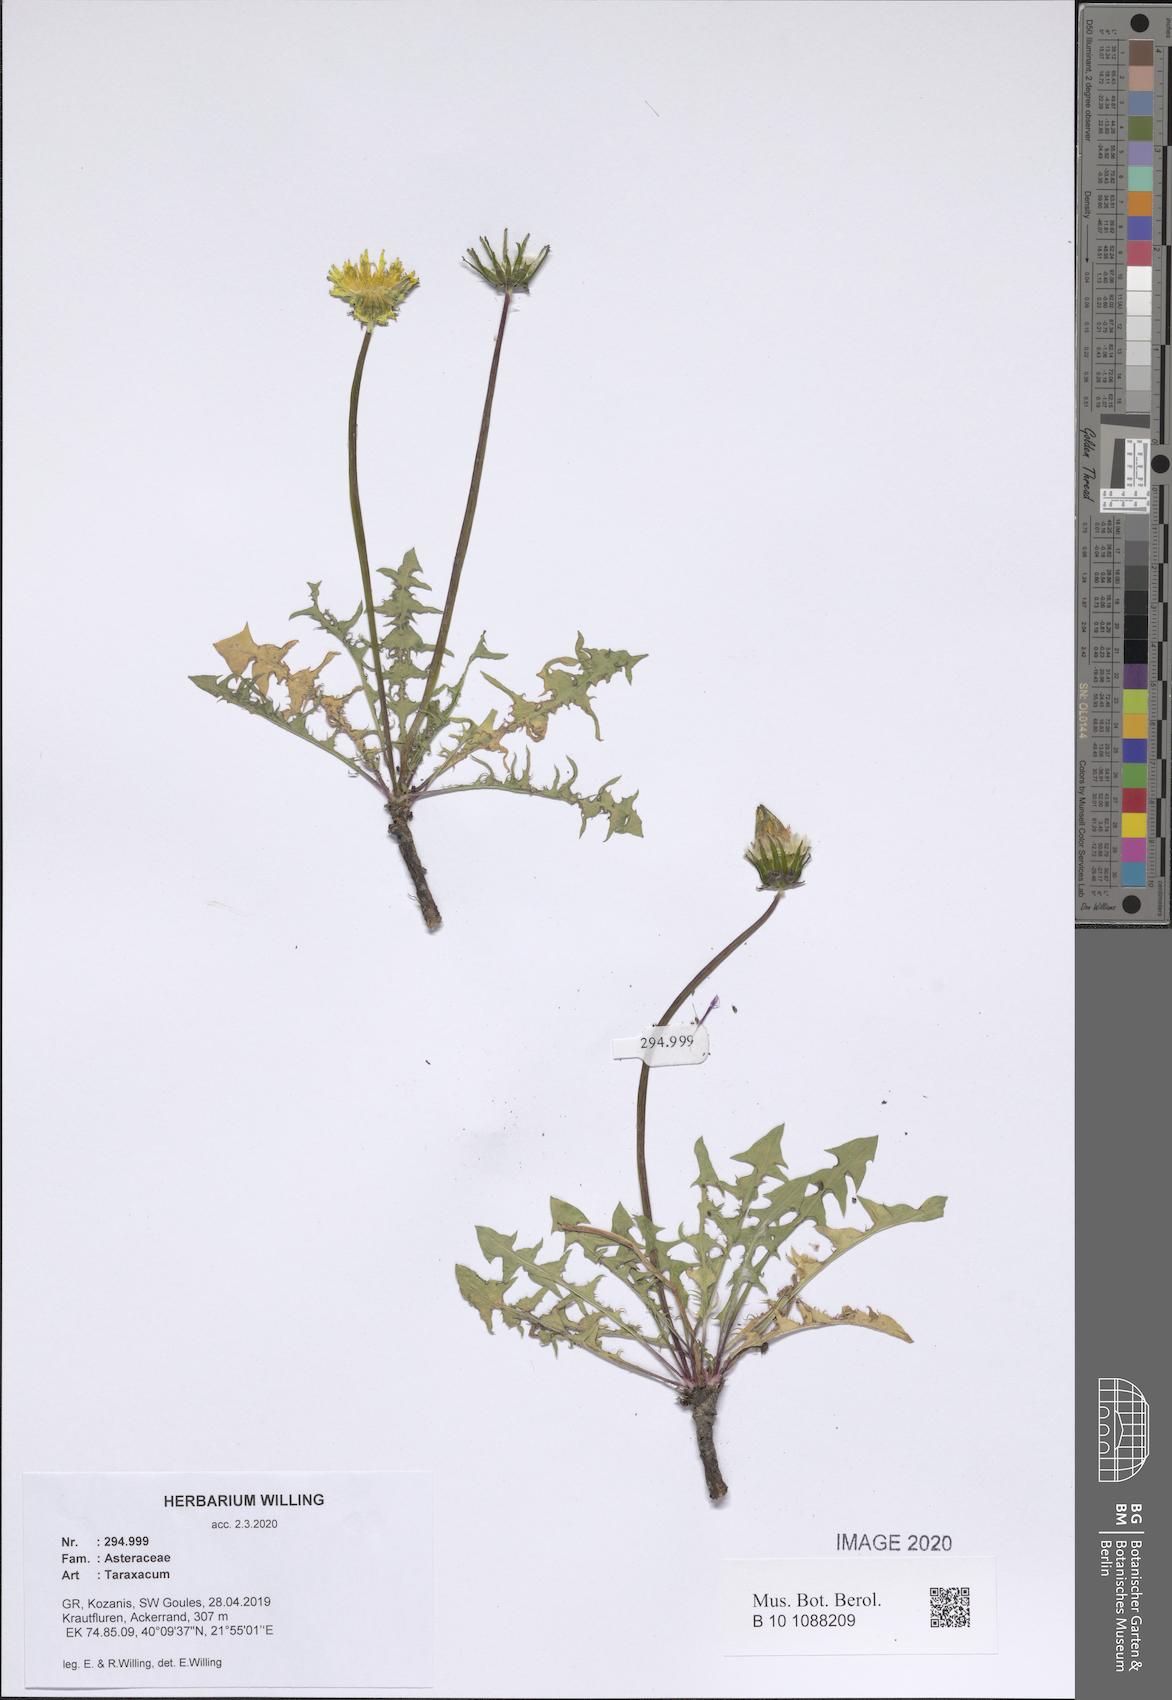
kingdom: Plantae
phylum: Tracheophyta
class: Magnoliopsida
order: Asterales
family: Asteraceae
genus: Taraxacum
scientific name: Taraxacum
